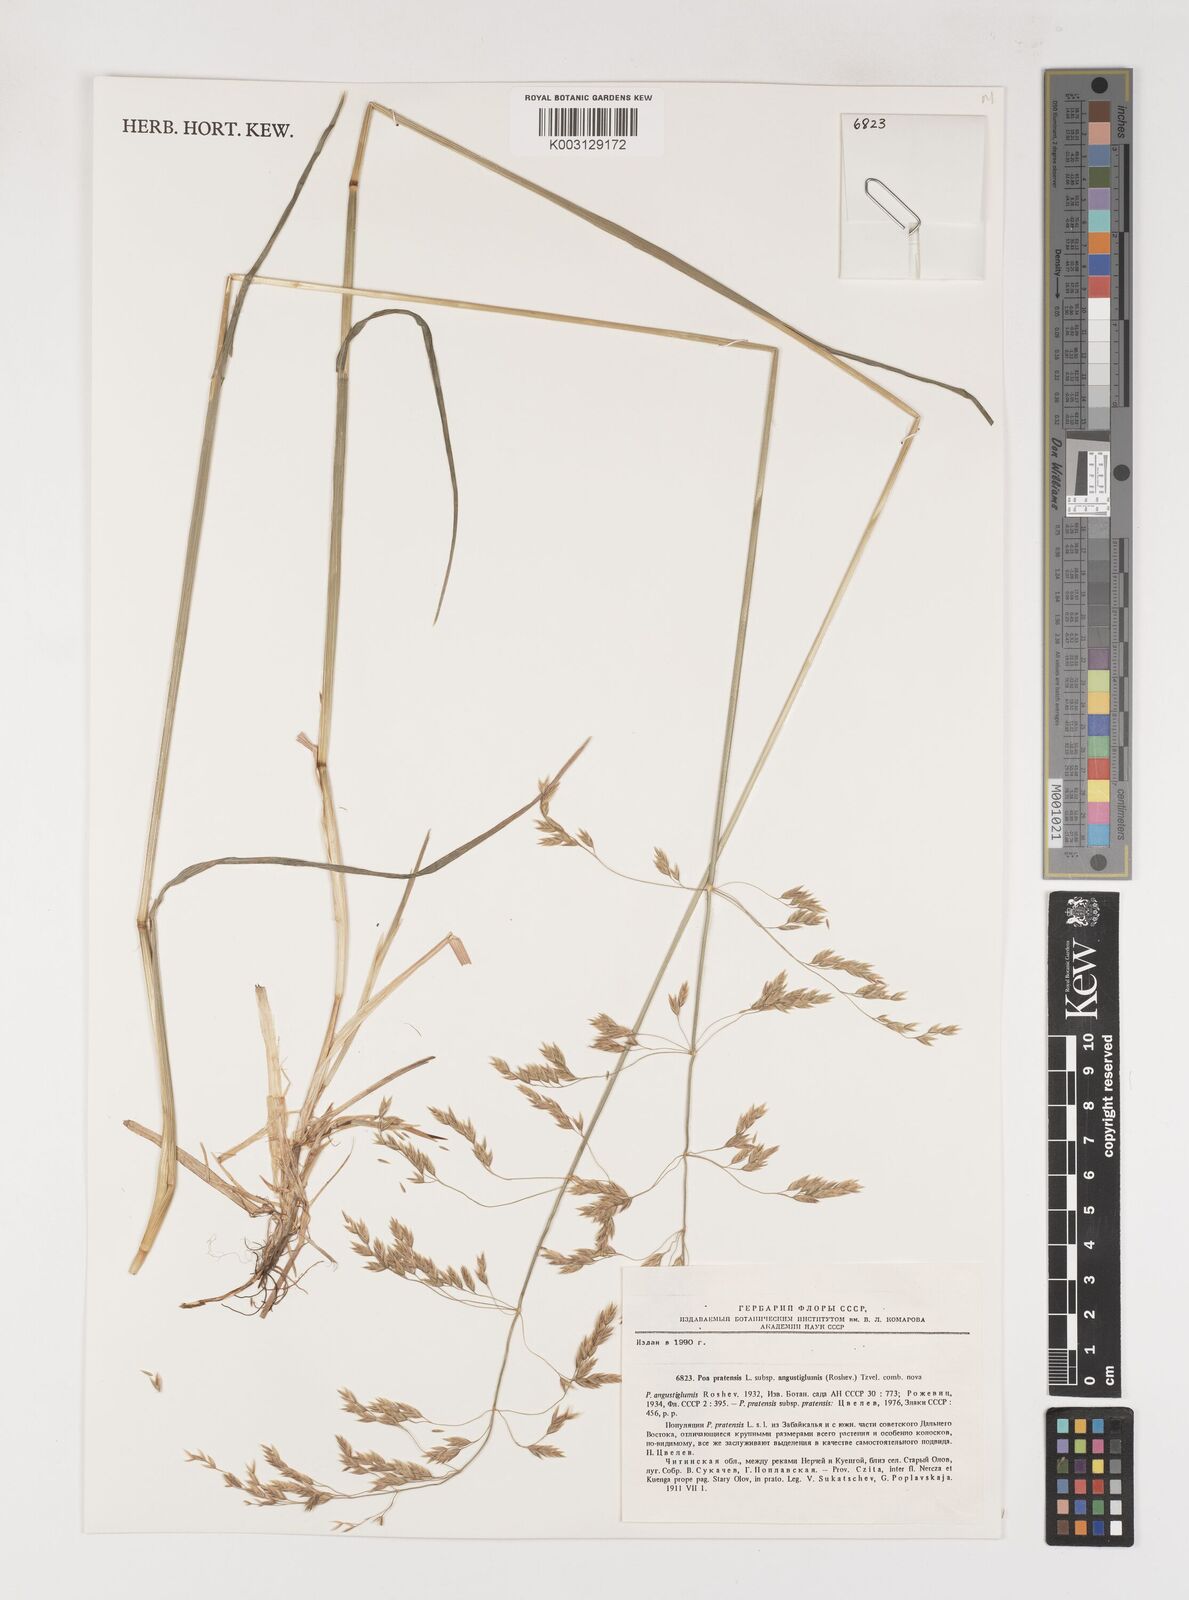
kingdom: Plantae
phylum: Tracheophyta
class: Liliopsida
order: Poales
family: Poaceae
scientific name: Poaceae
